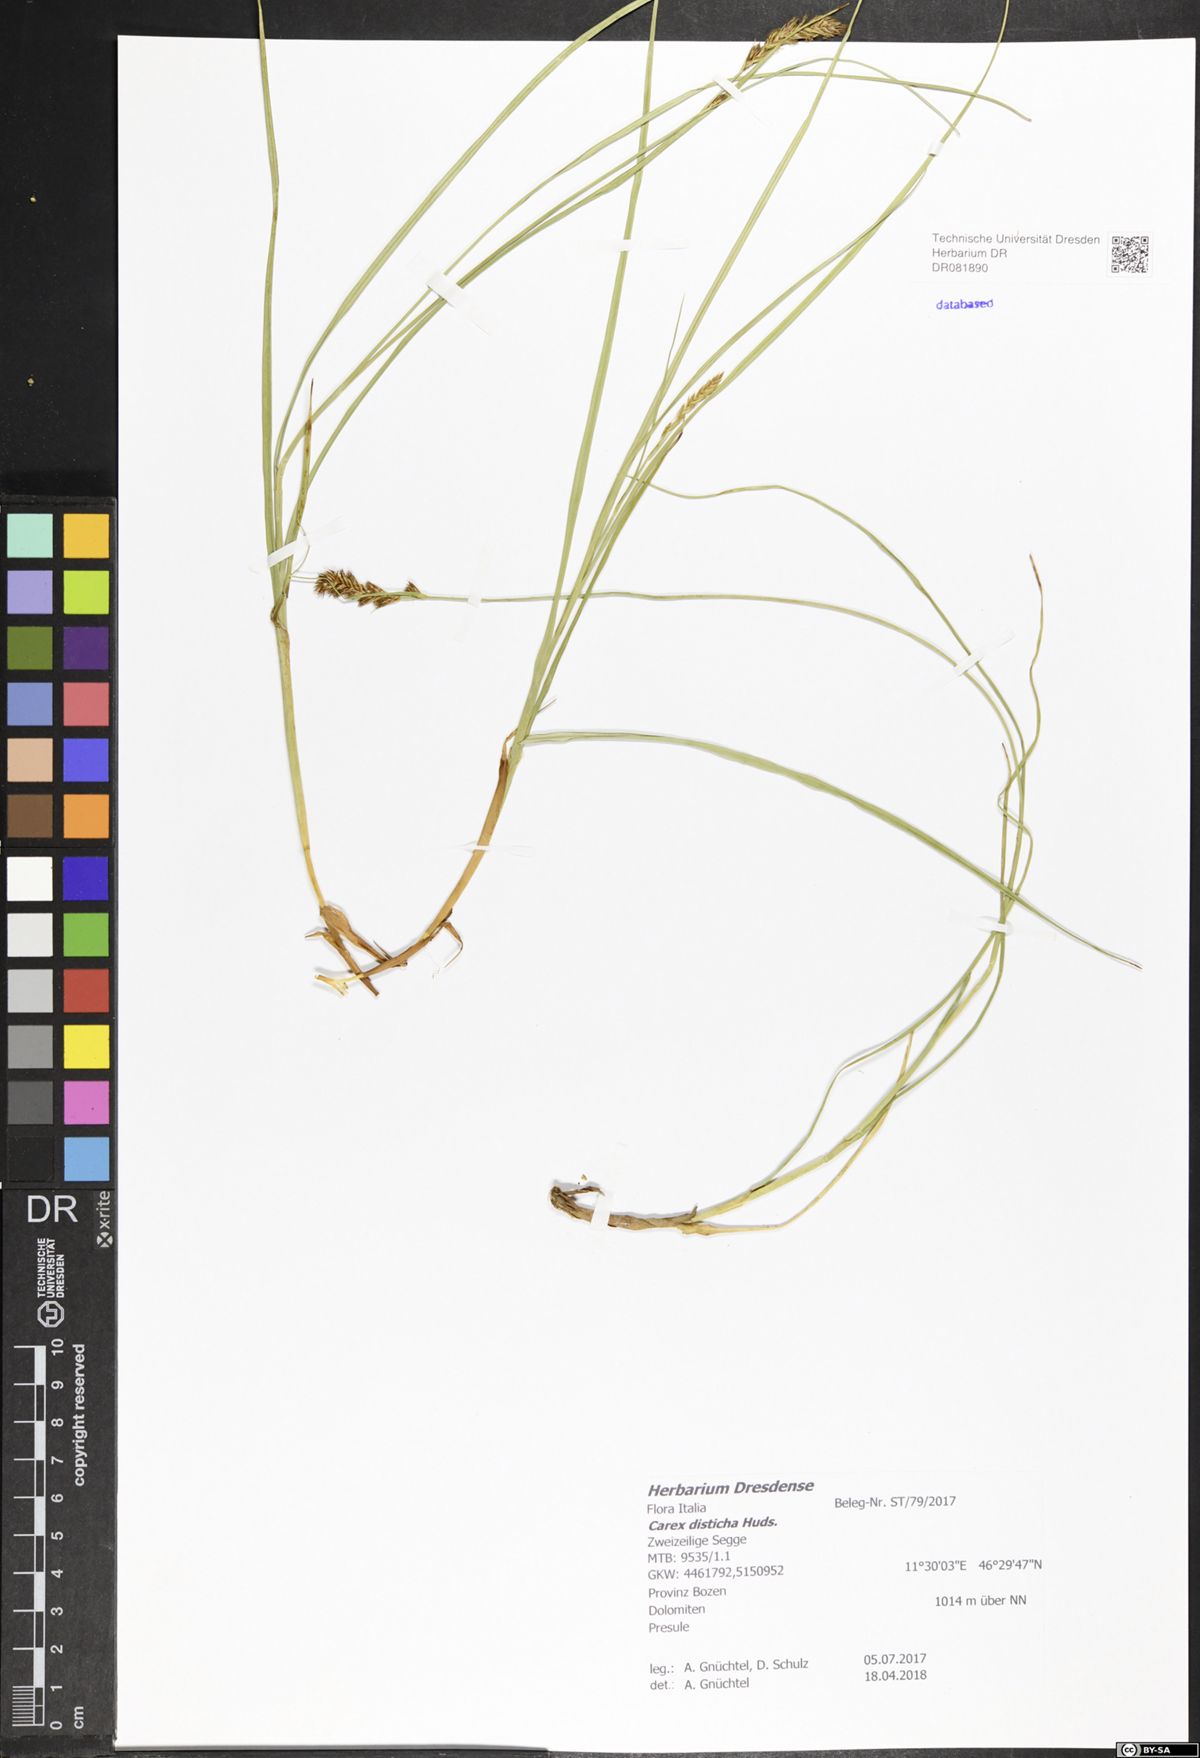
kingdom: Plantae
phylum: Tracheophyta
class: Liliopsida
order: Poales
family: Cyperaceae
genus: Carex
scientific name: Carex disticha
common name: Brown sedge
